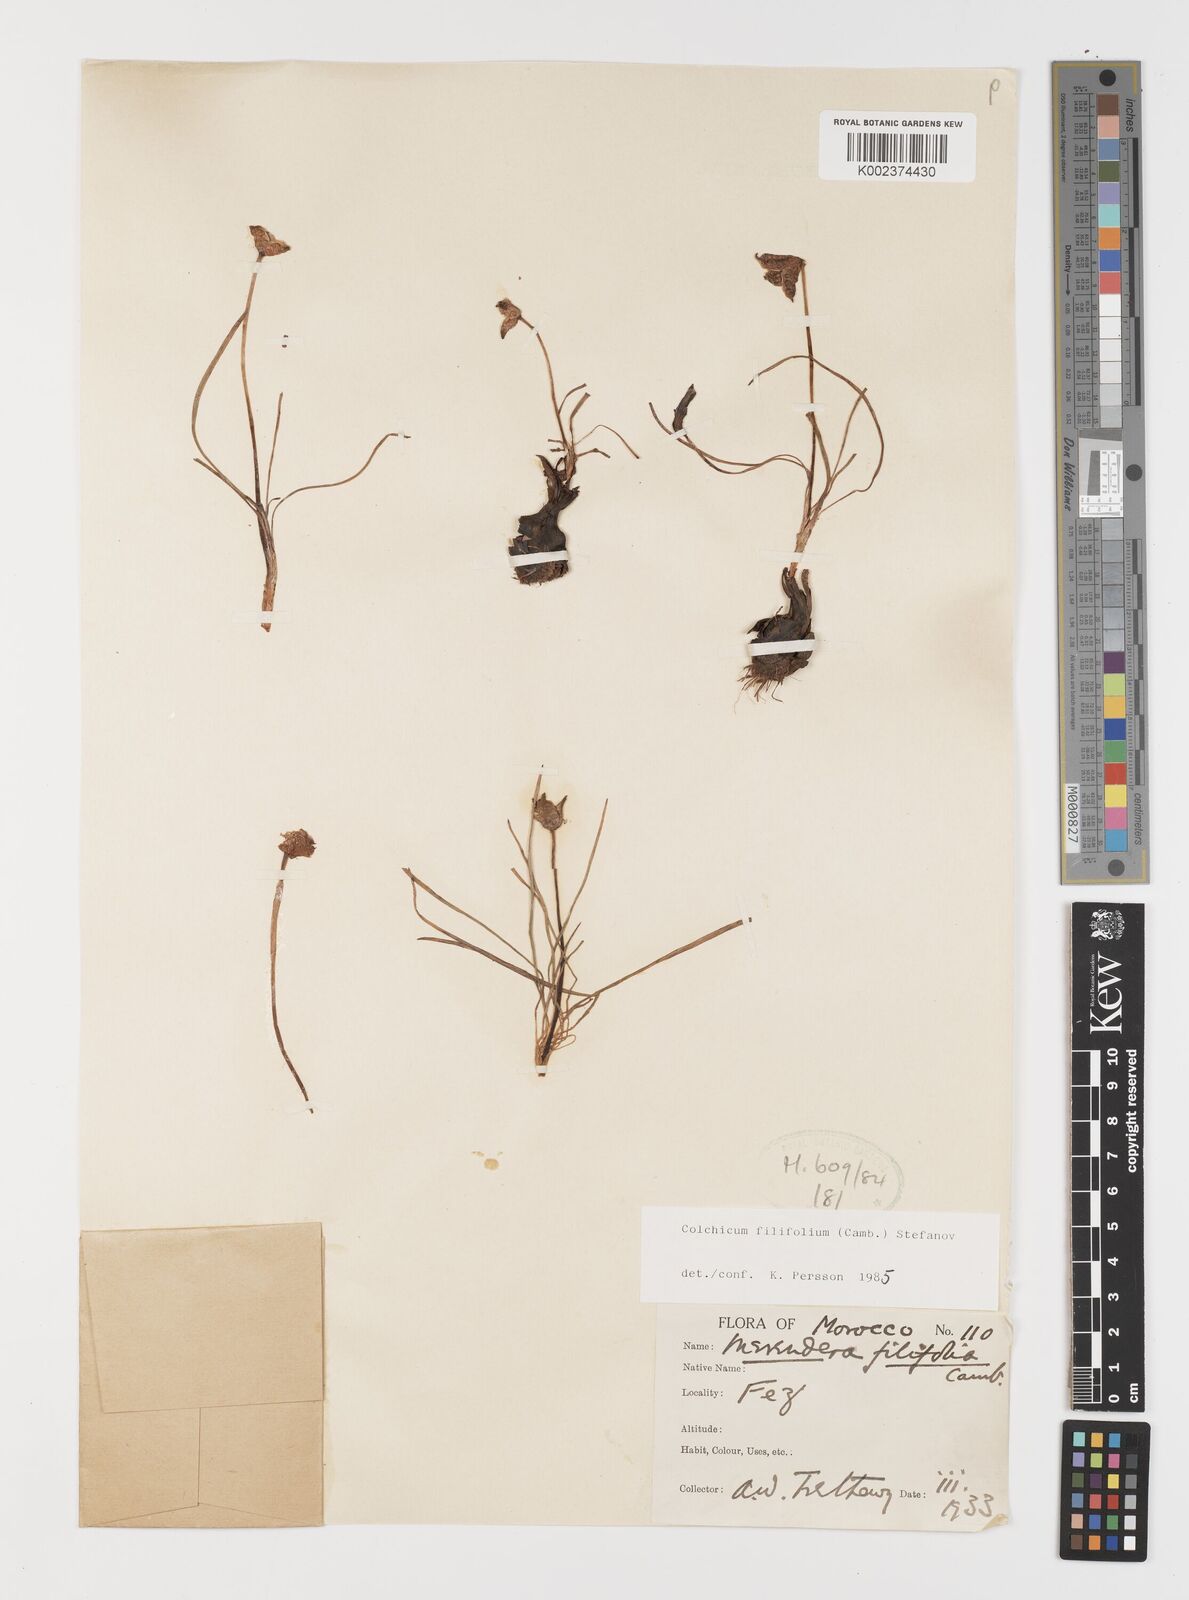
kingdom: Plantae
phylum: Tracheophyta
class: Liliopsida
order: Liliales
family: Colchicaceae
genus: Colchicum
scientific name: Colchicum filifolium
